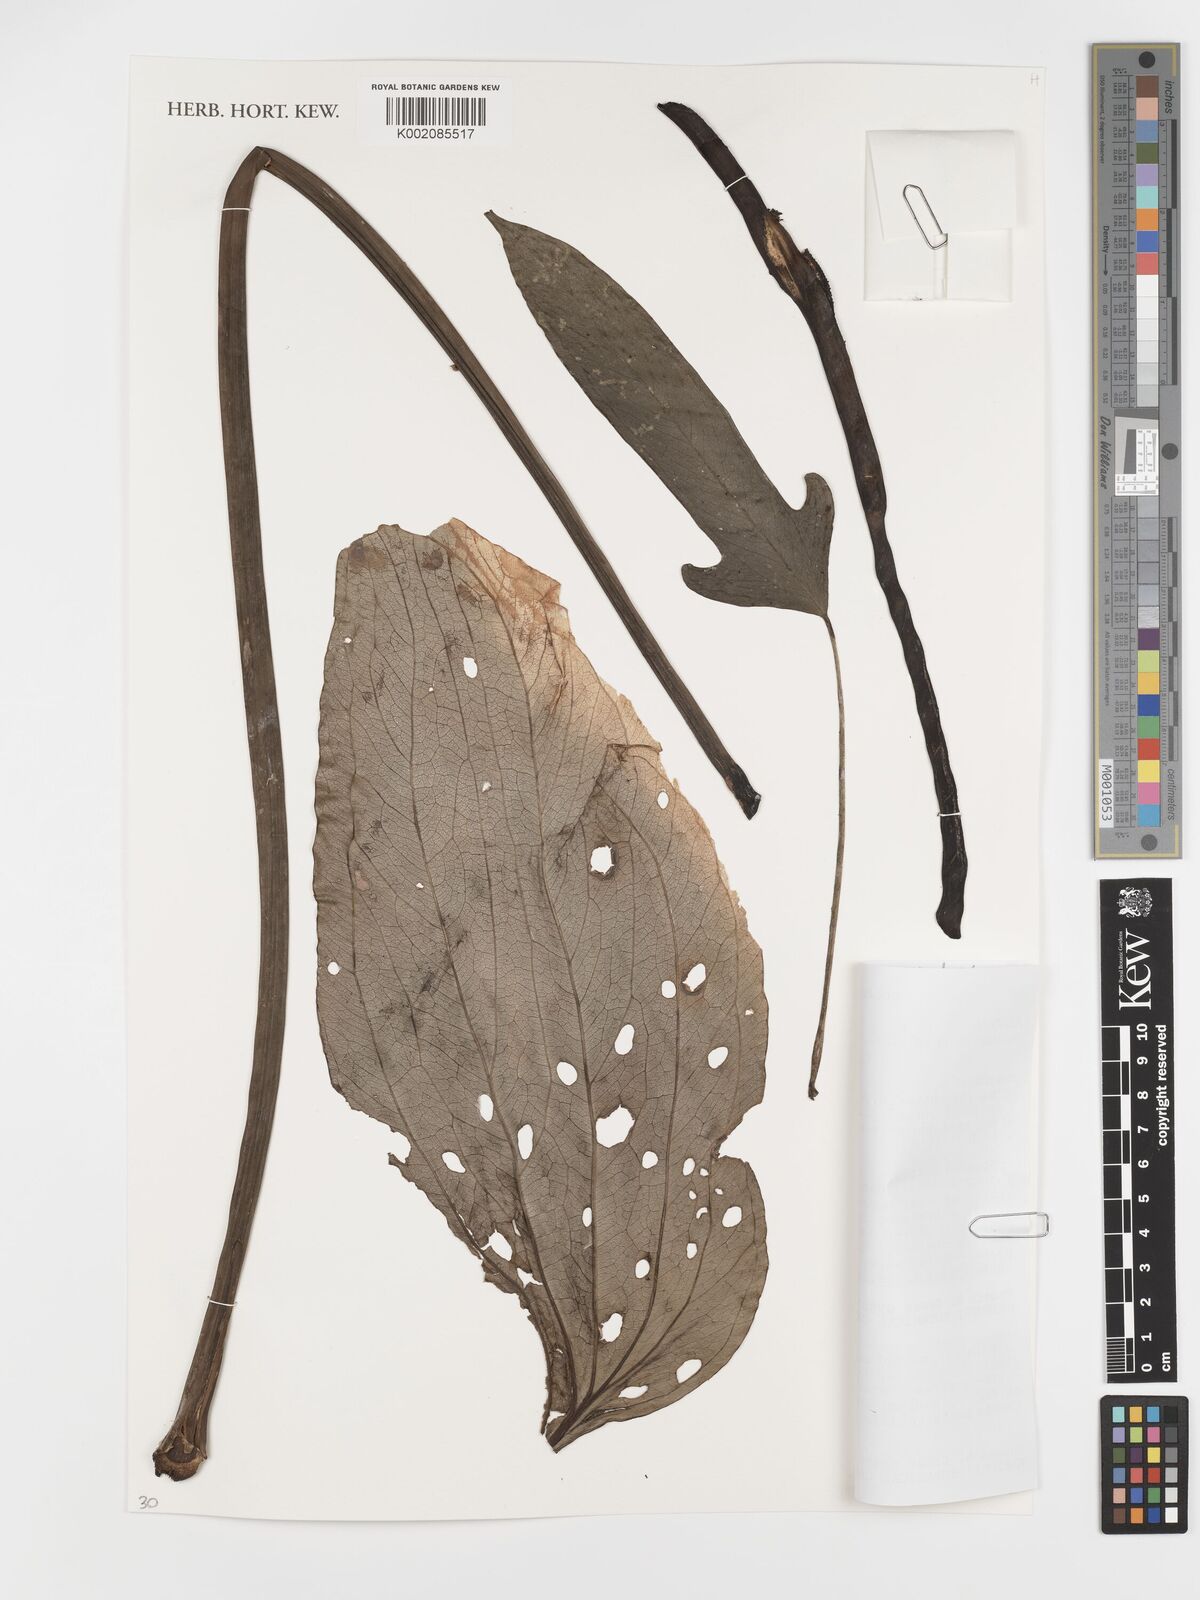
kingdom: Plantae
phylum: Tracheophyta
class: Liliopsida
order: Alismatales
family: Araceae
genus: Anthurium
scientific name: Anthurium alatum
